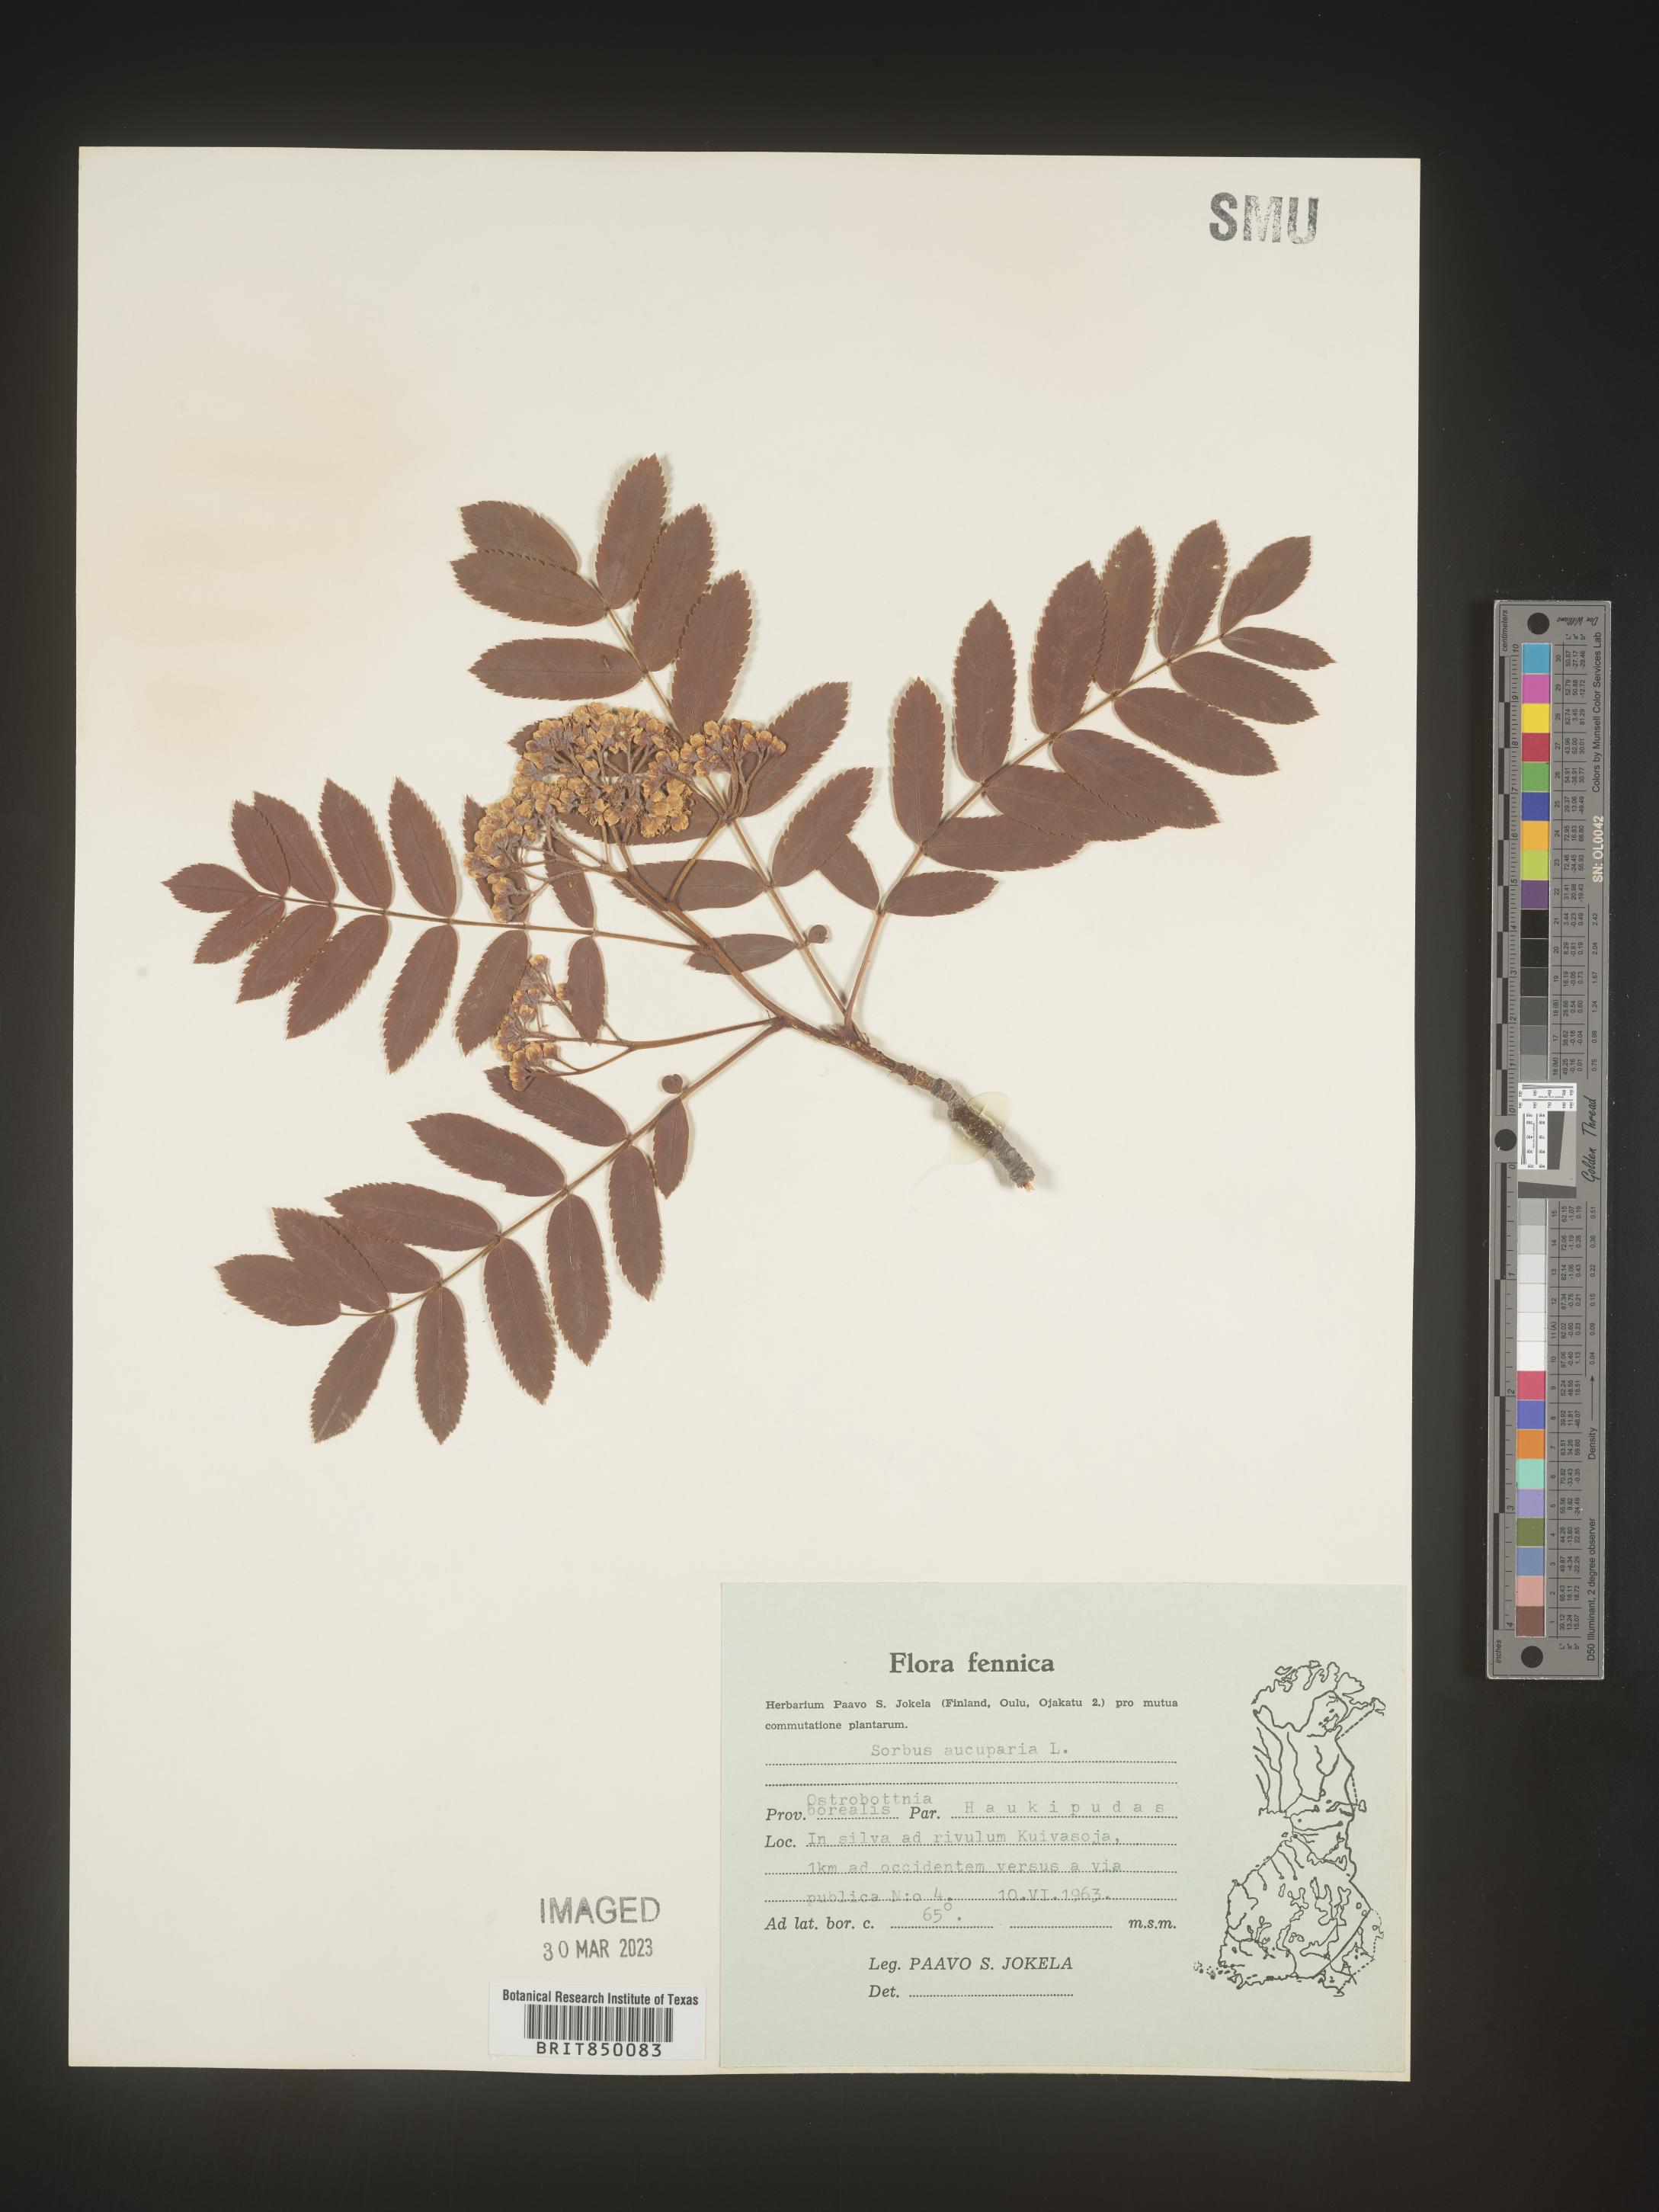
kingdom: Plantae
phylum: Tracheophyta
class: Magnoliopsida
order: Rosales
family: Rosaceae
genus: Sorbus
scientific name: Sorbus
